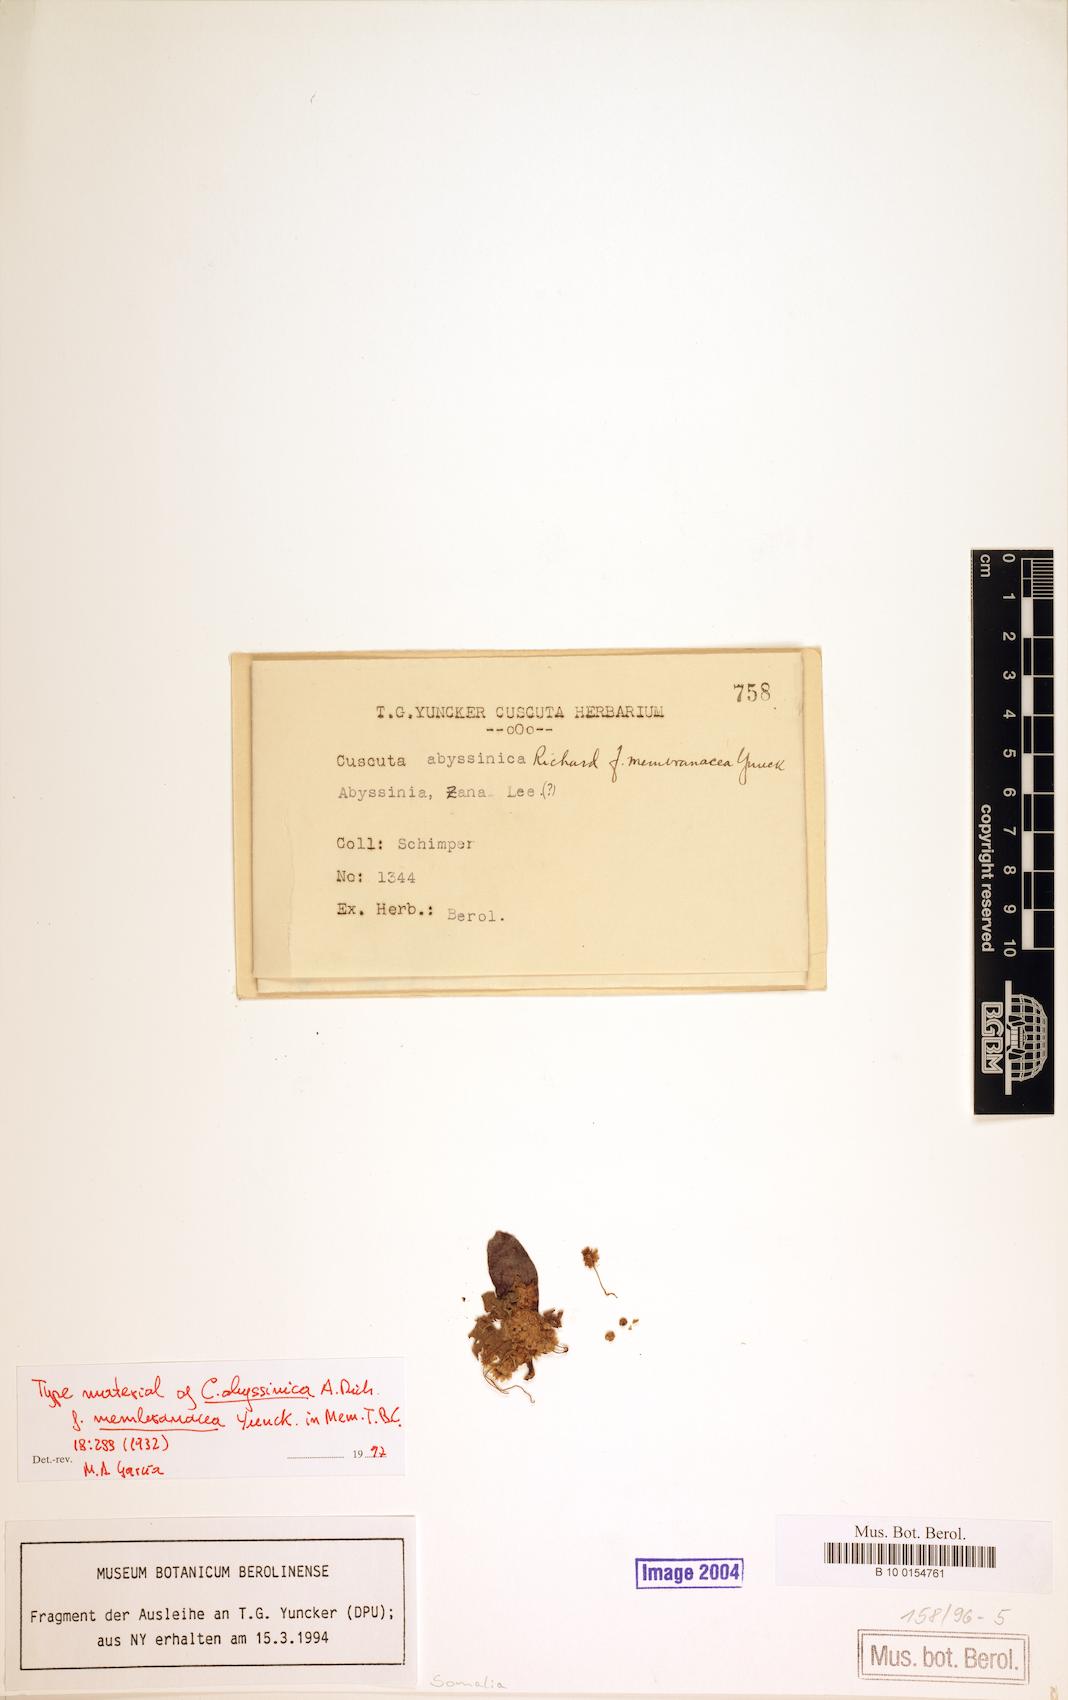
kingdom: Plantae
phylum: Tracheophyta
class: Magnoliopsida
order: Solanales
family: Convolvulaceae
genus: Cuscuta
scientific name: Cuscuta abyssinica
